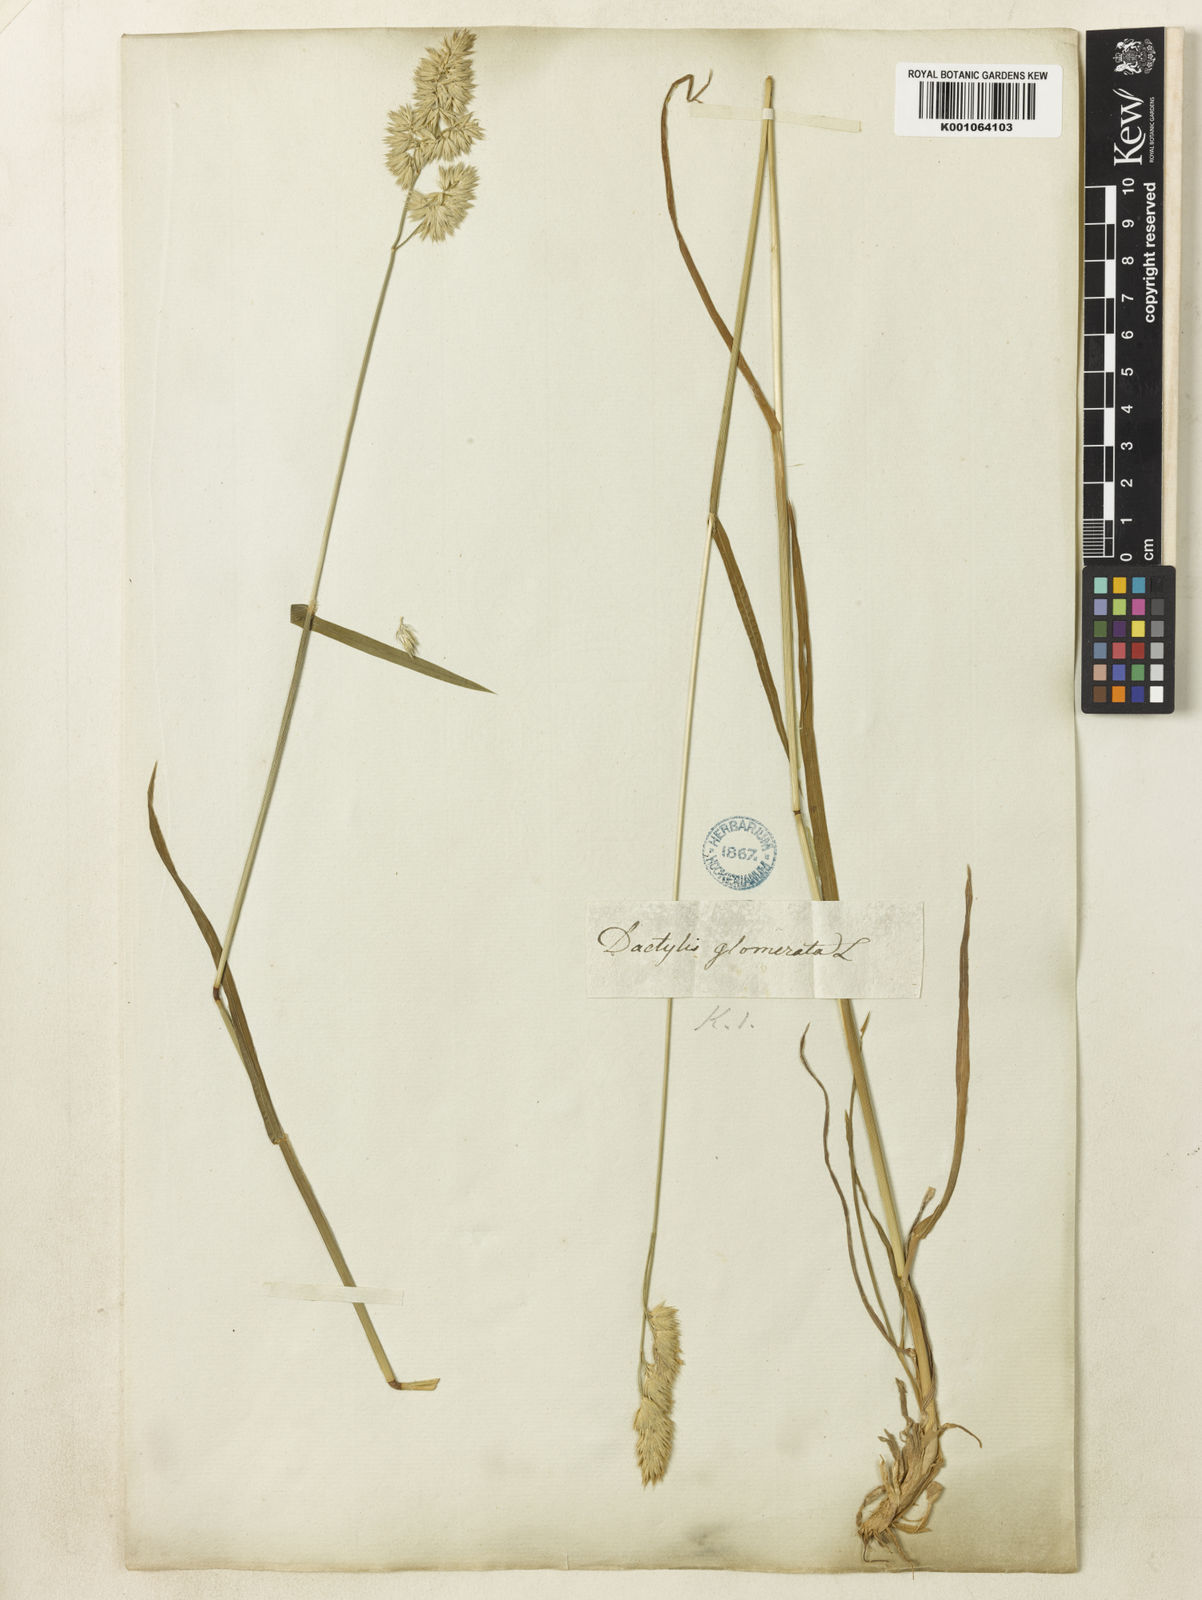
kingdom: Plantae
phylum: Tracheophyta
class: Liliopsida
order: Poales
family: Poaceae
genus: Dactylis
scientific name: Dactylis glomerata
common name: Orchardgrass
